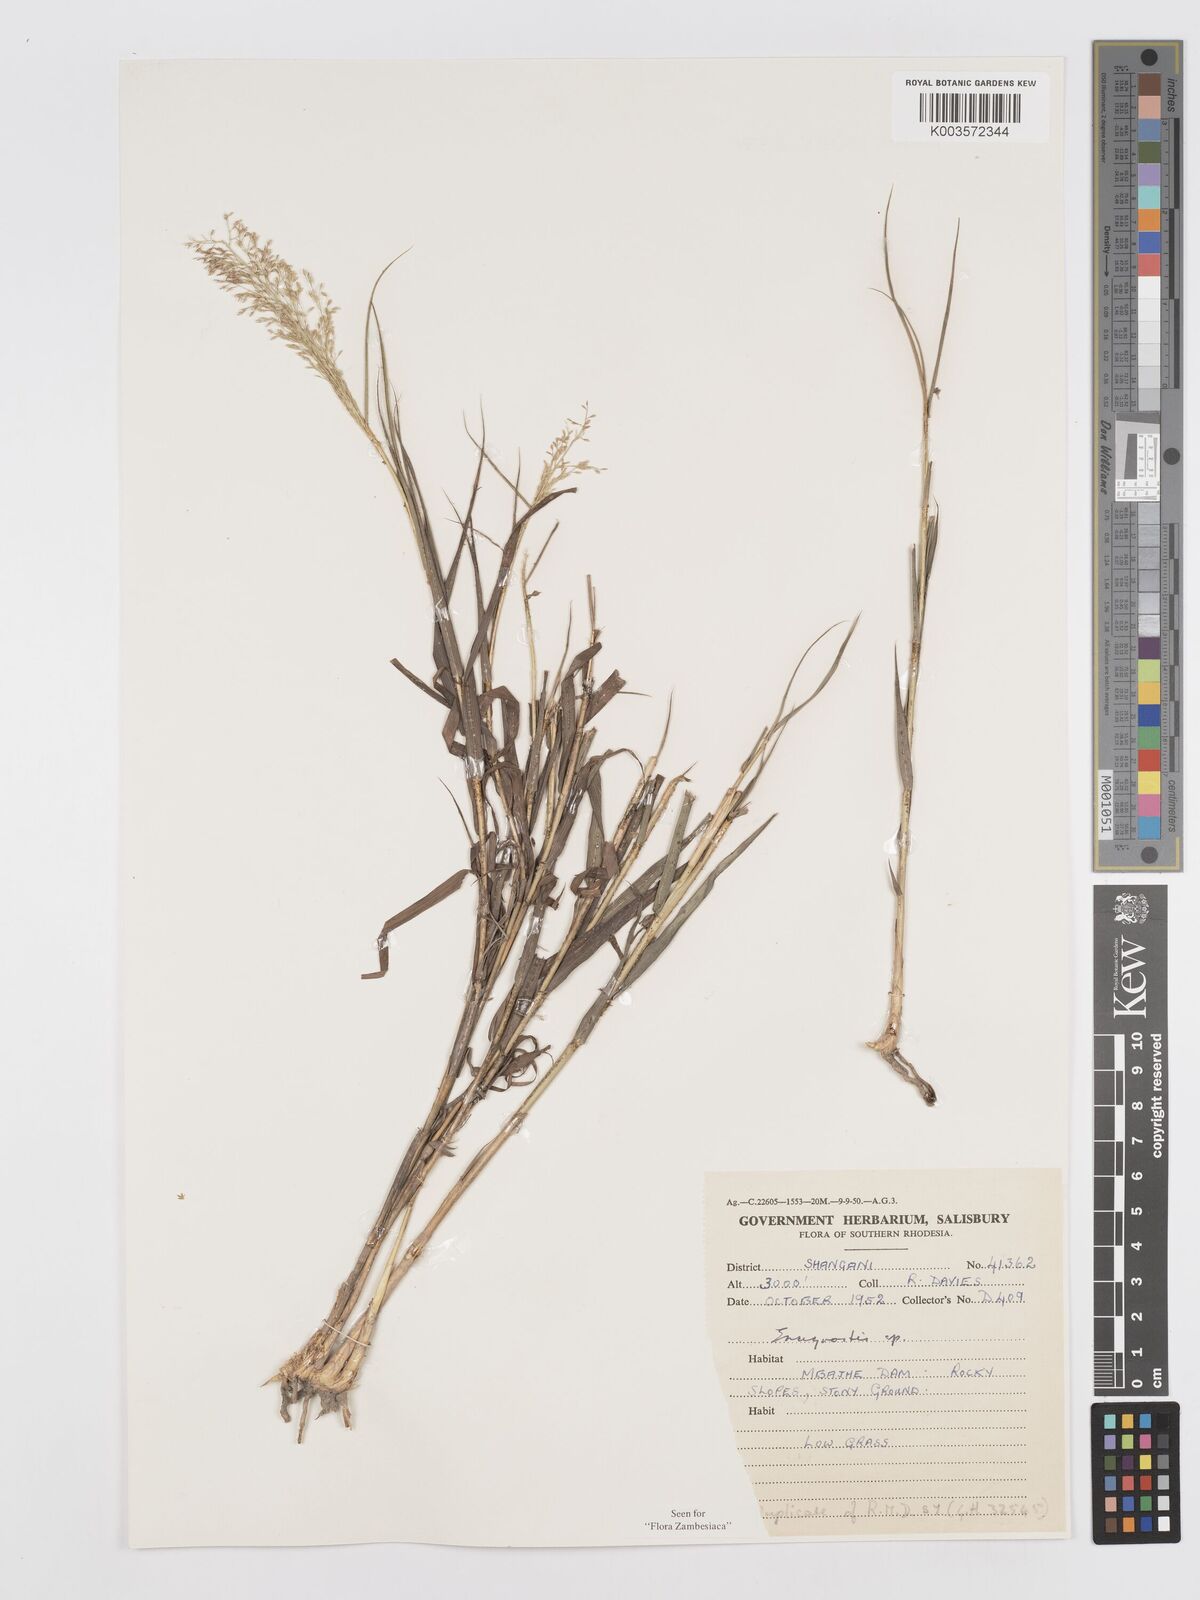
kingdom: Plantae
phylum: Tracheophyta
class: Liliopsida
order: Poales
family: Poaceae
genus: Eragrostis
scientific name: Eragrostis glischra
